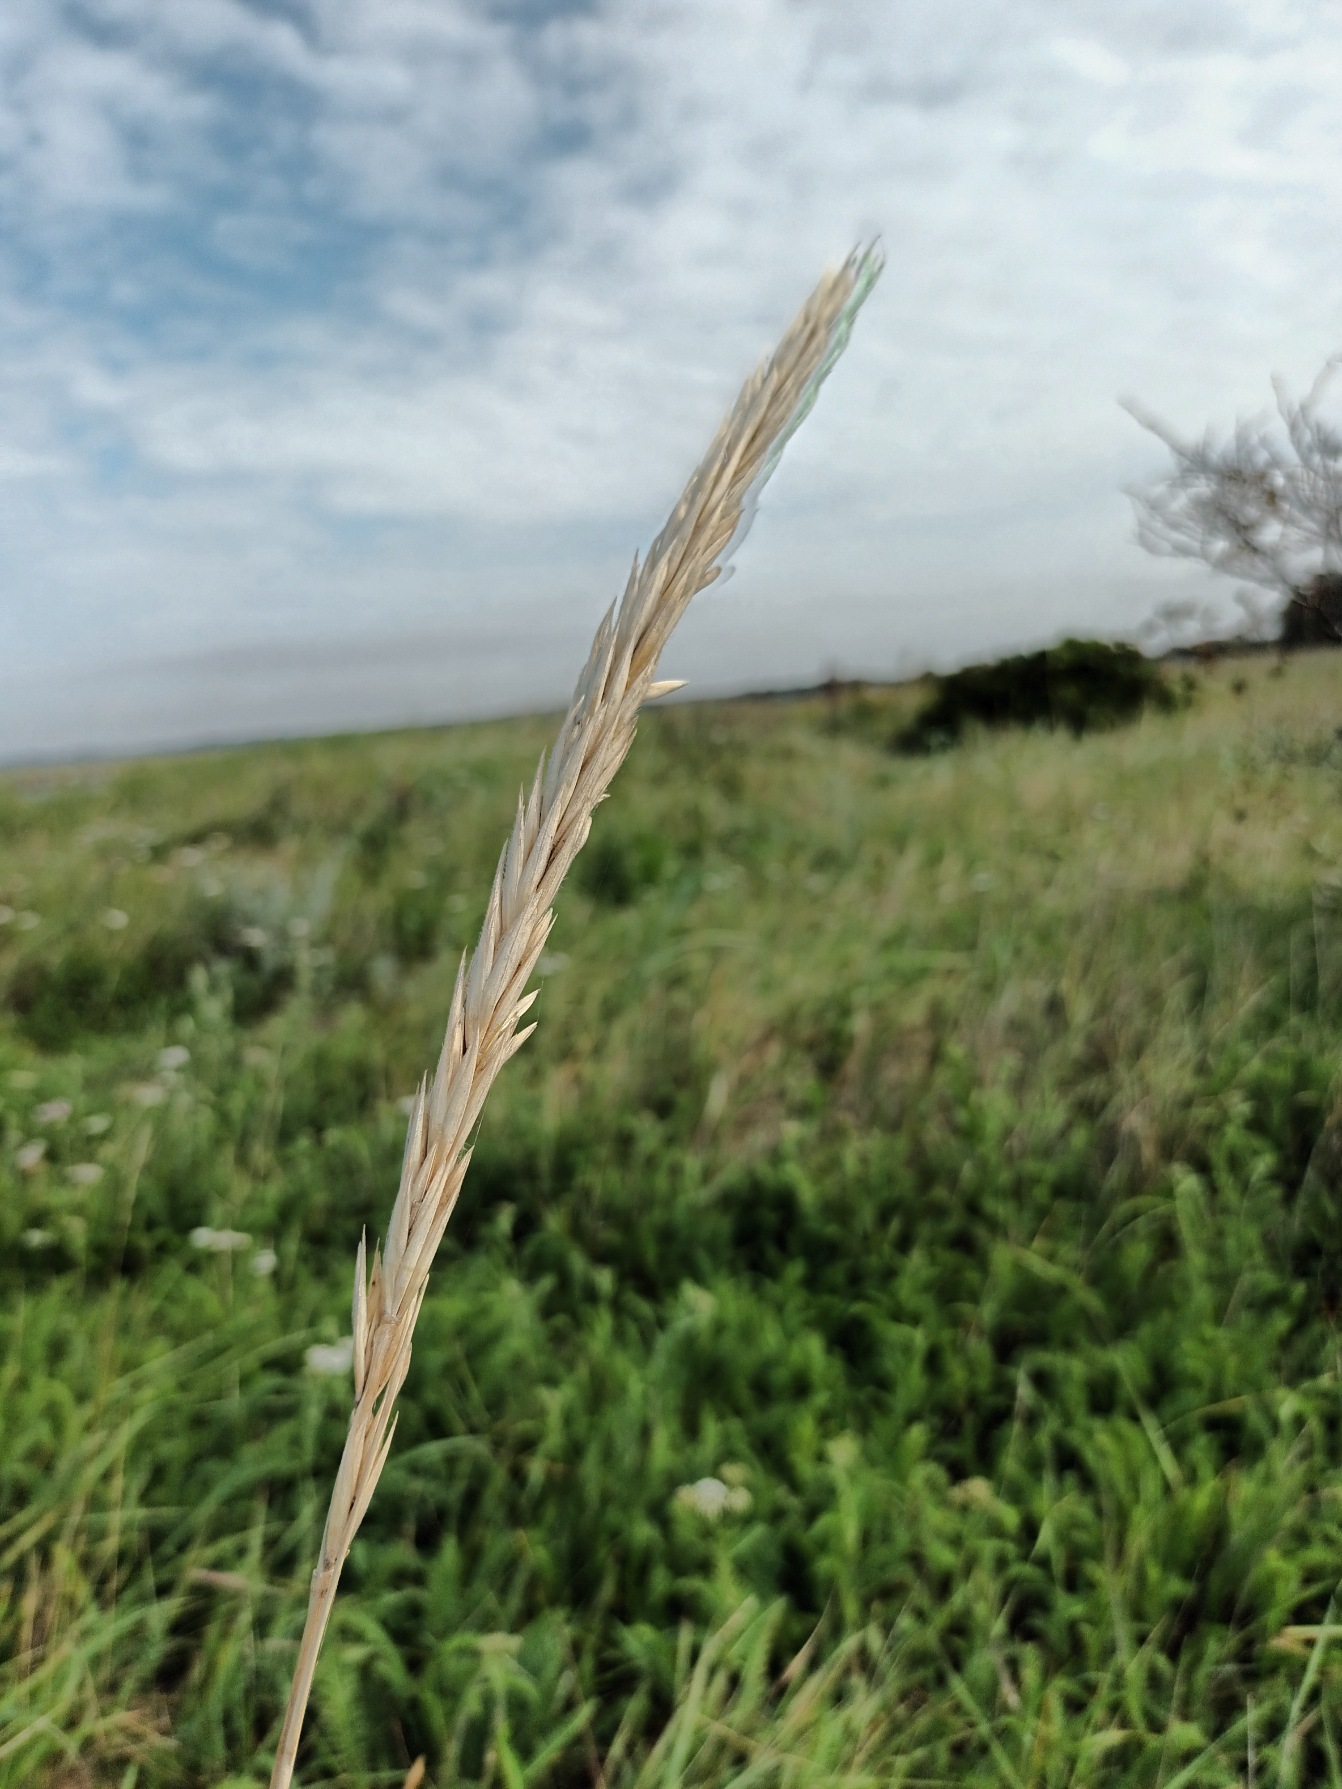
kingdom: Plantae
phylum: Tracheophyta
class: Liliopsida
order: Poales
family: Poaceae
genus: Leymus
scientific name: Leymus arenarius
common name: Marehalm
